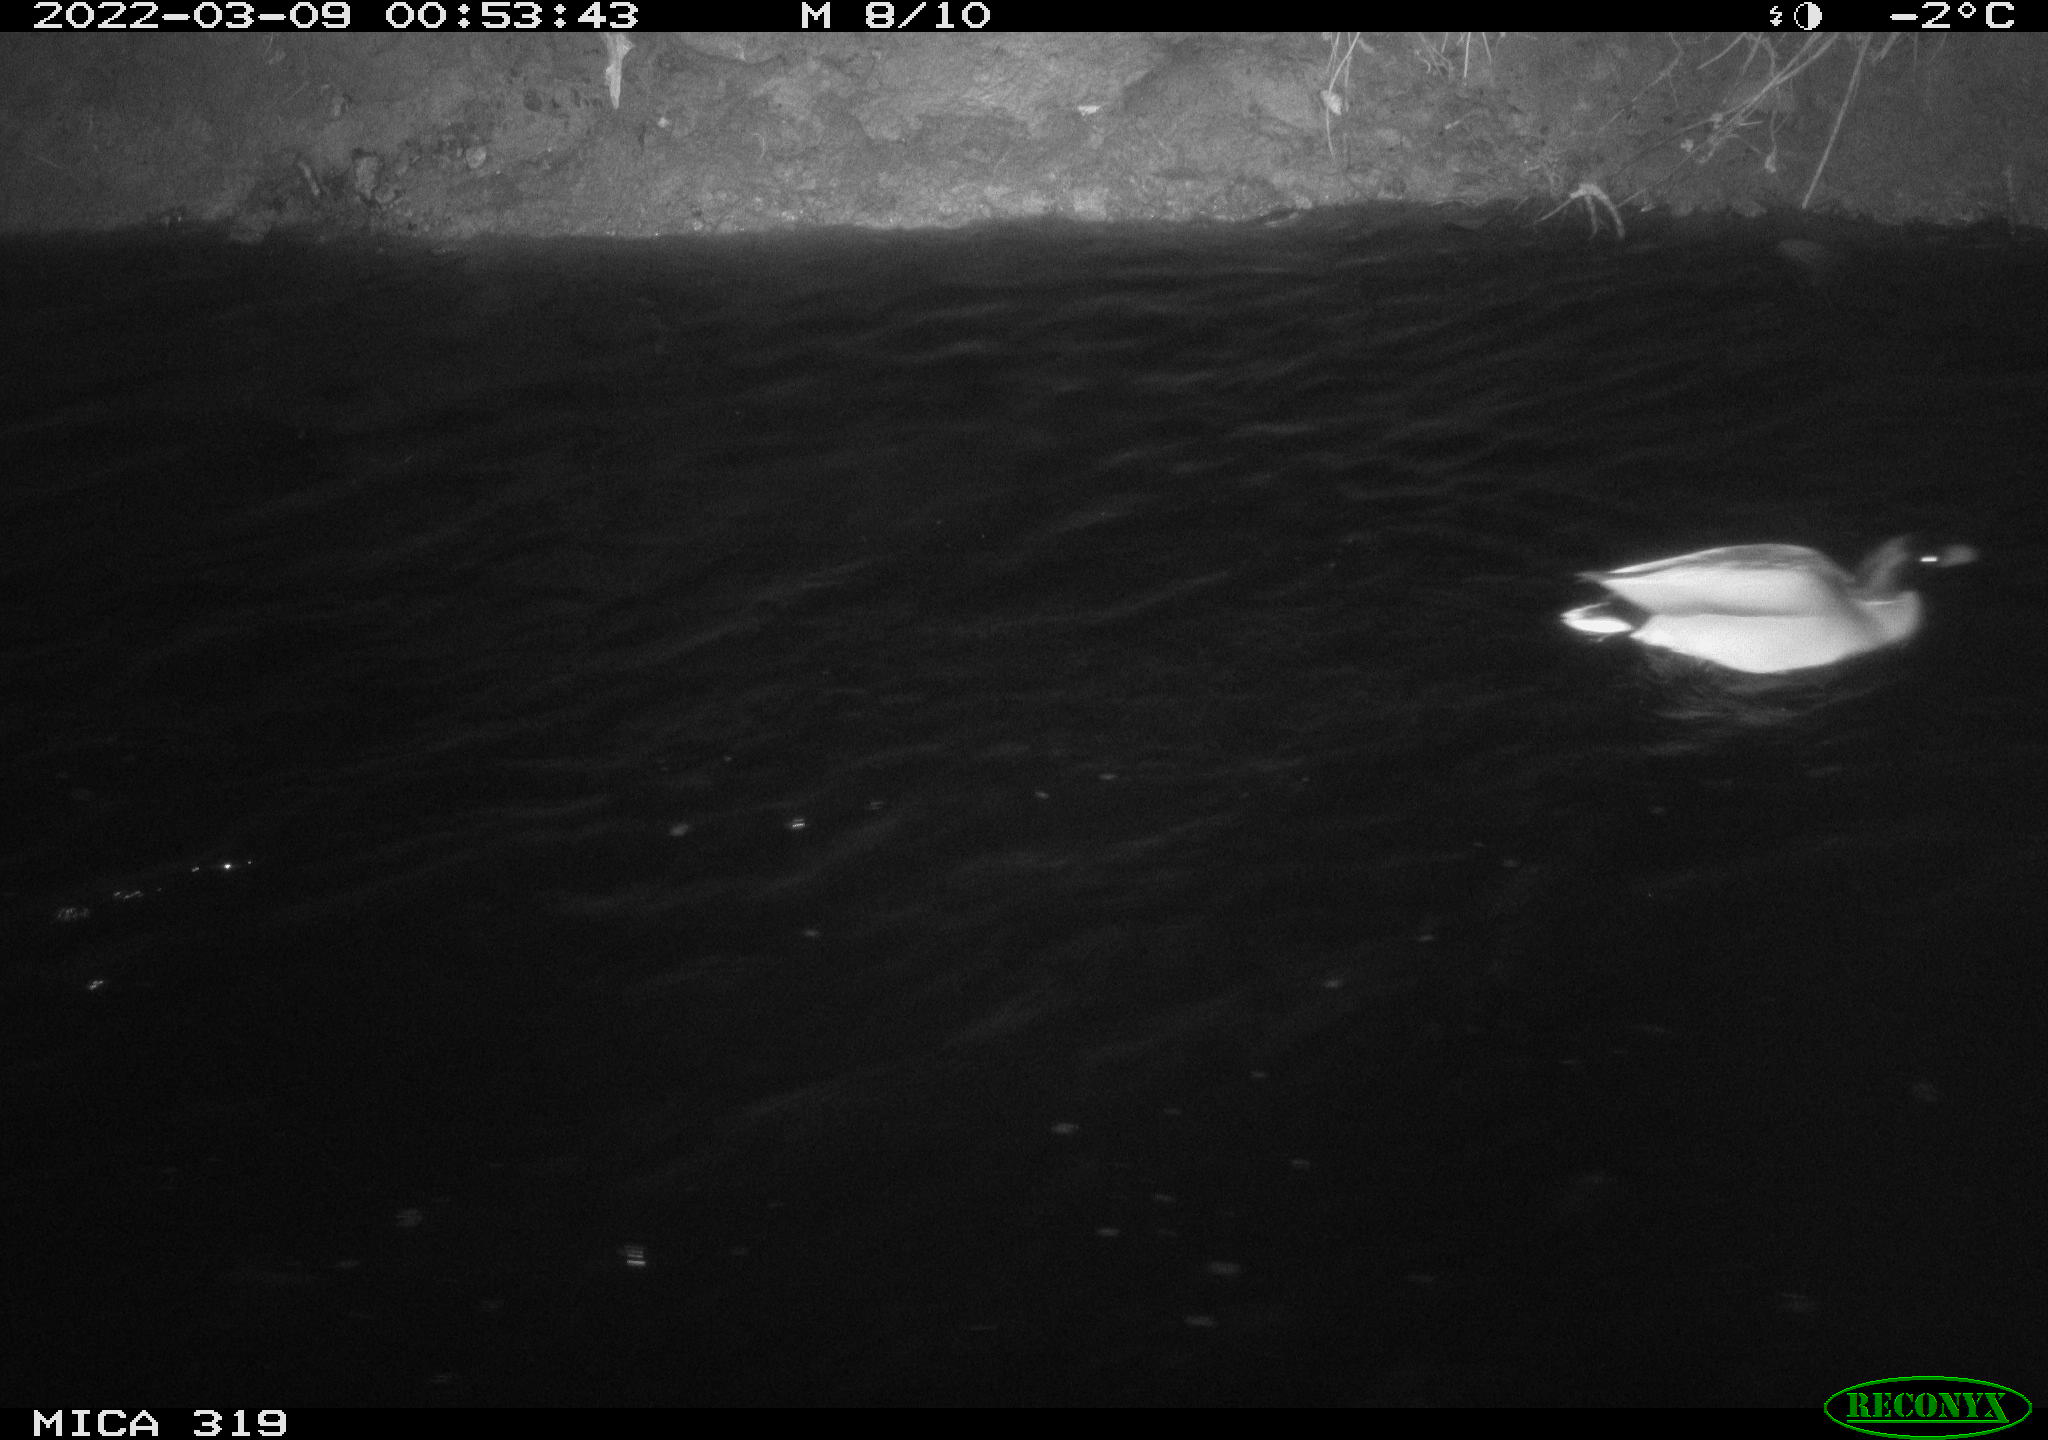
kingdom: Animalia
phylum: Chordata
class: Aves
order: Anseriformes
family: Anatidae
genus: Anas
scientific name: Anas platyrhynchos
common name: Mallard
